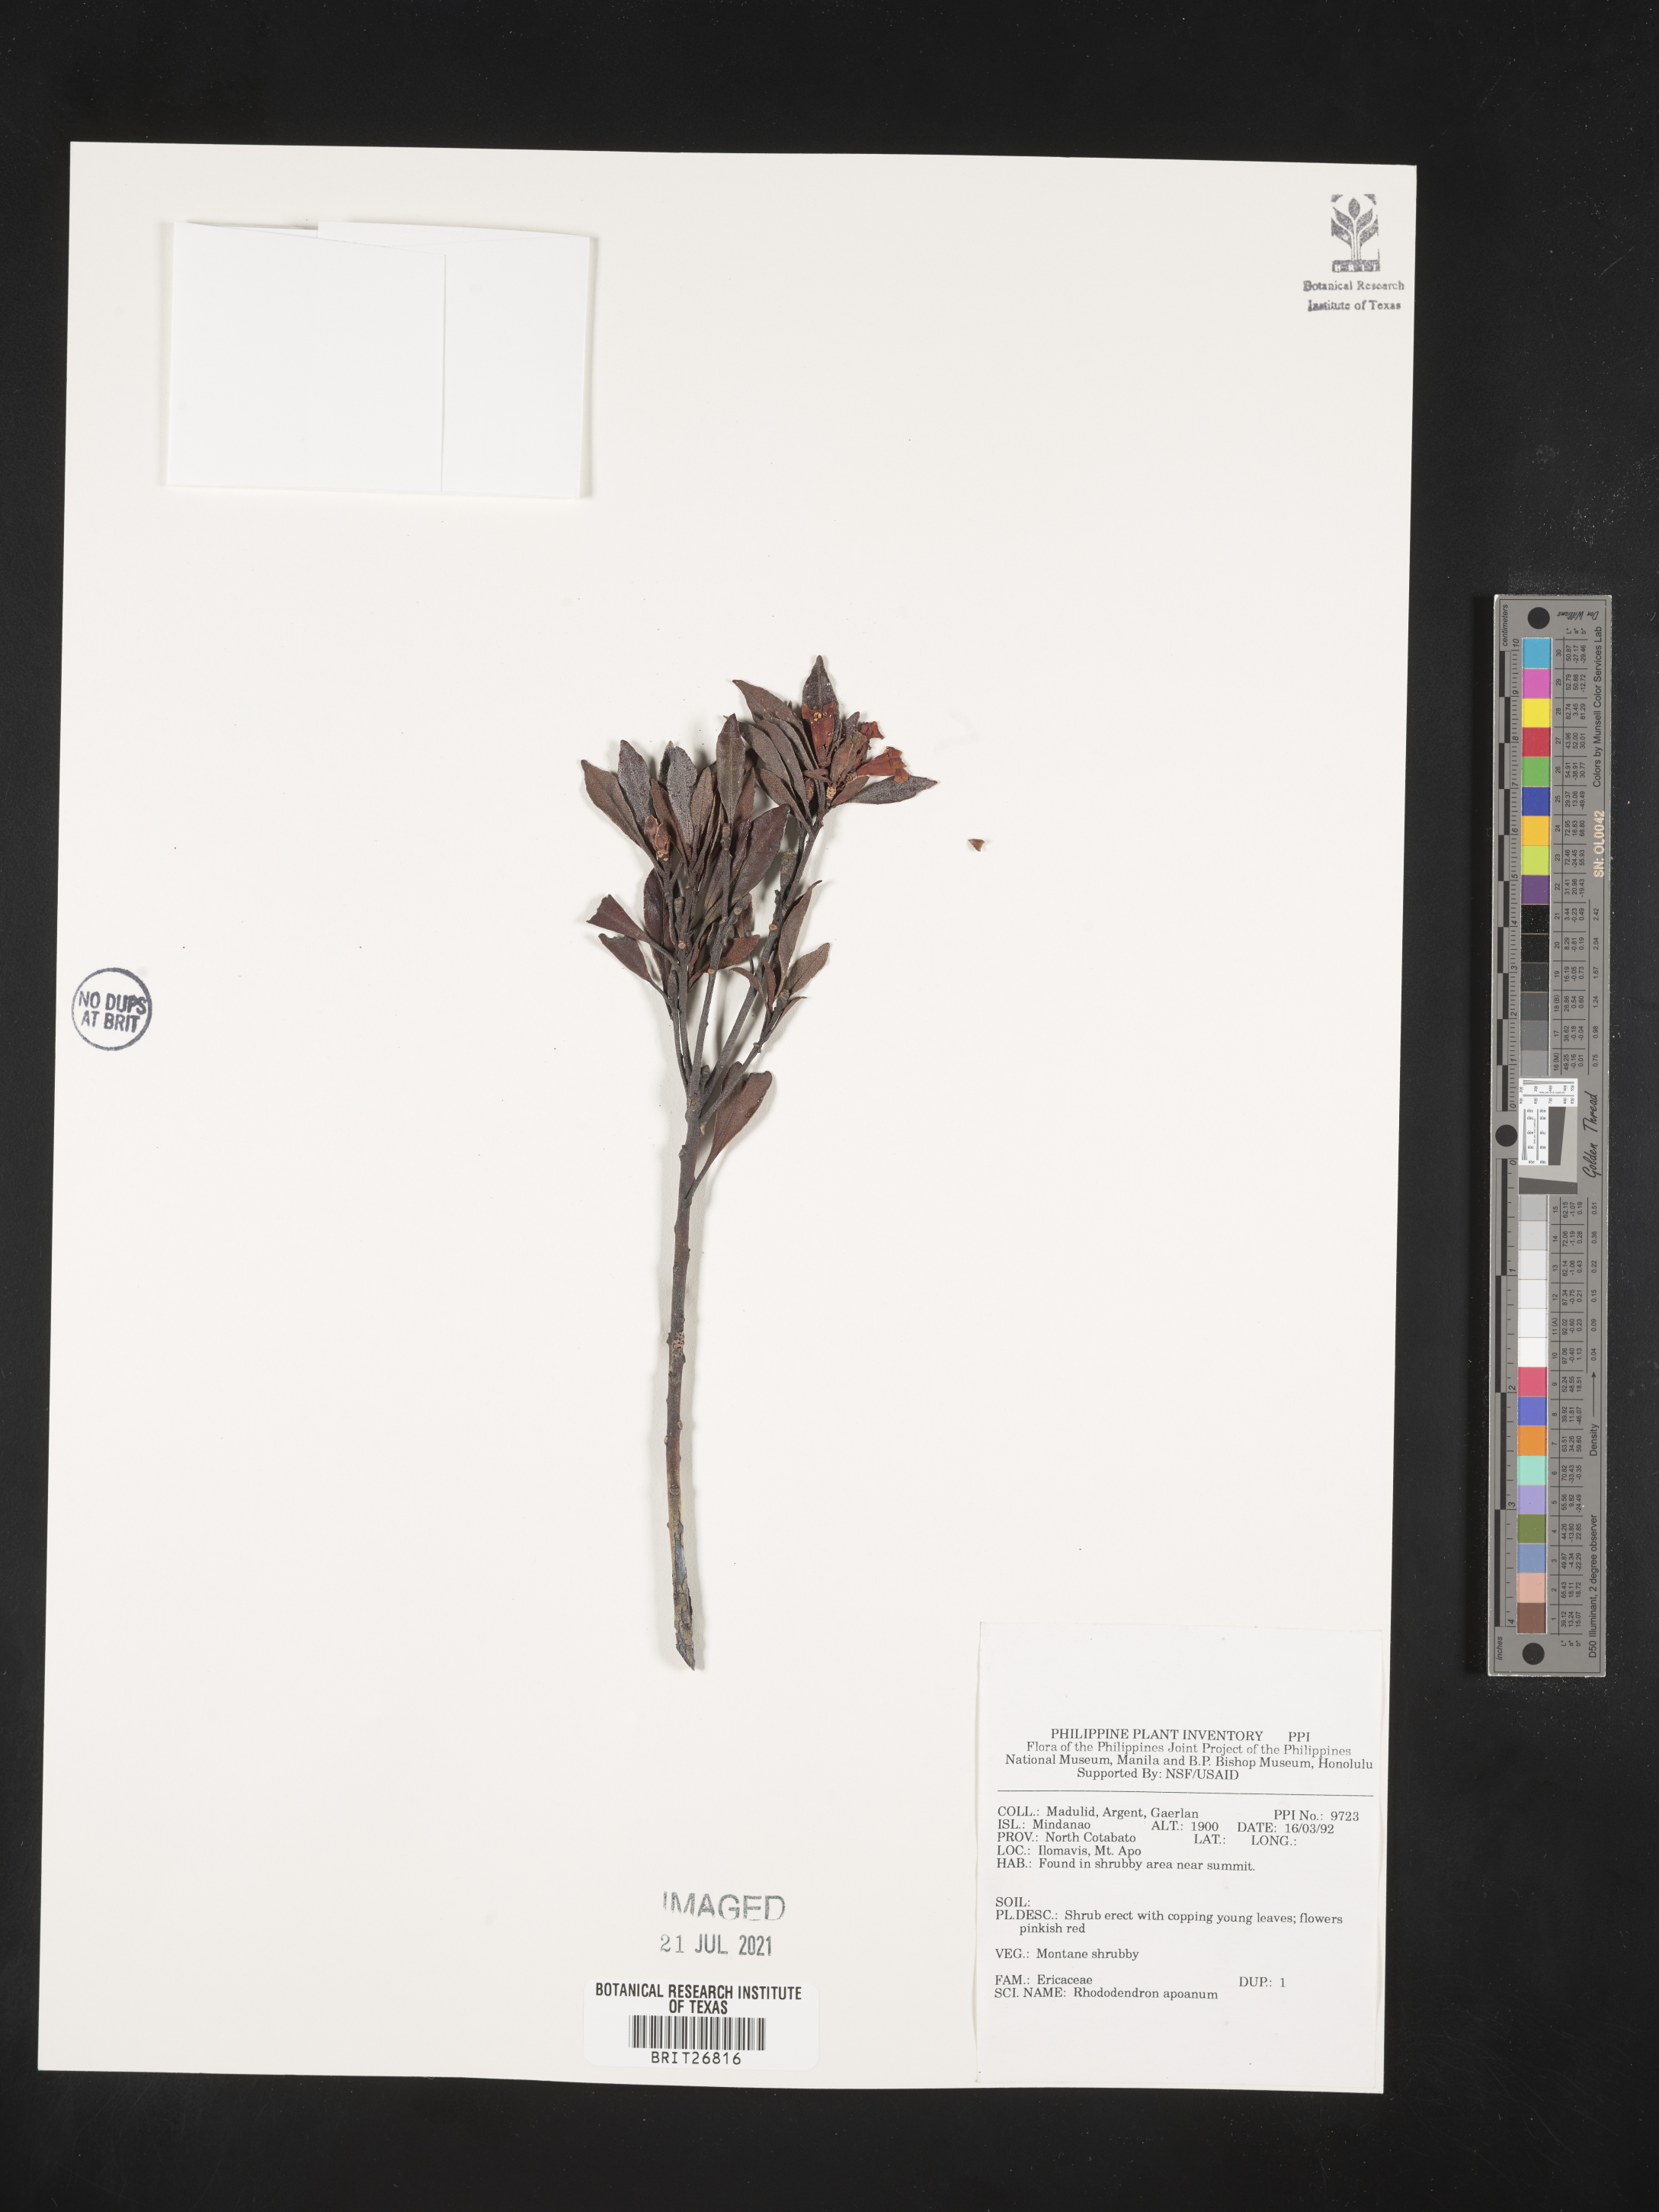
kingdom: Plantae
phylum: Tracheophyta
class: Magnoliopsida
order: Ericales
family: Ericaceae
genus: Rhododendron
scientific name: Rhododendron apoanum
